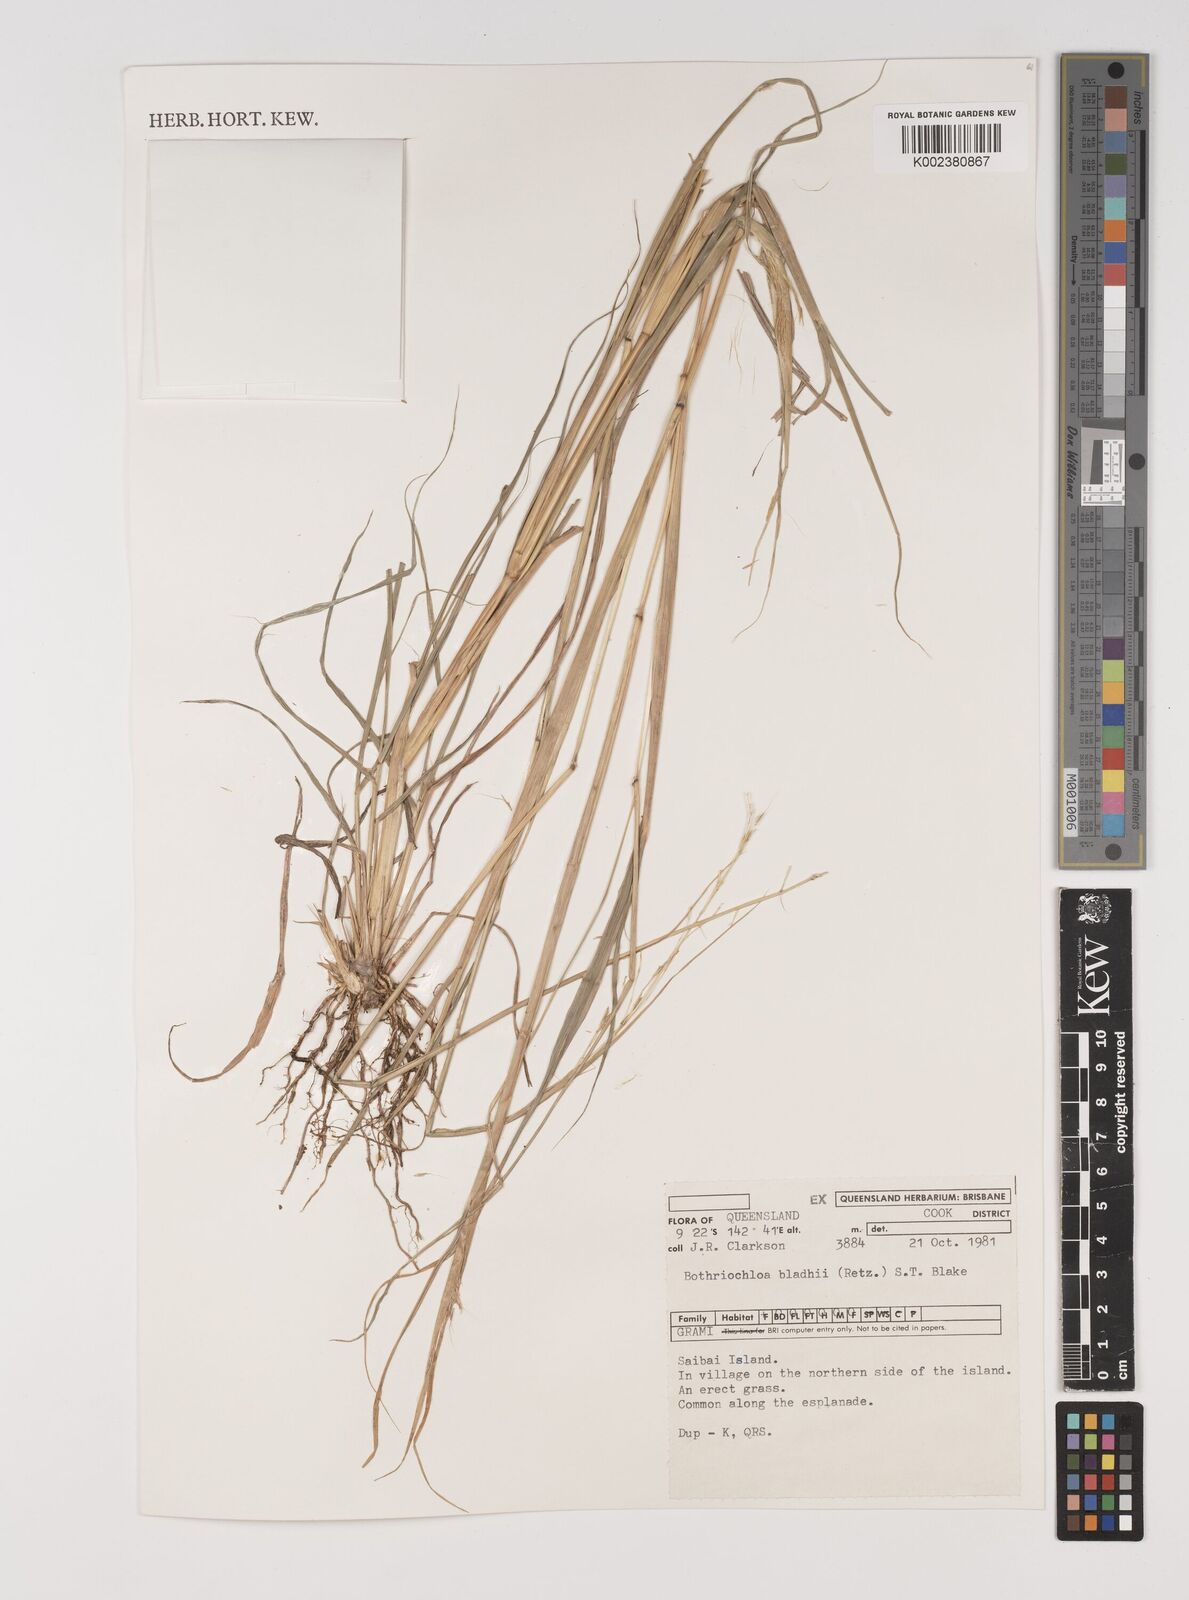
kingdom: Plantae
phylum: Tracheophyta
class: Liliopsida
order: Poales
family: Poaceae
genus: Bothriochloa
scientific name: Bothriochloa bladhii
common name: Caucasian bluestem
